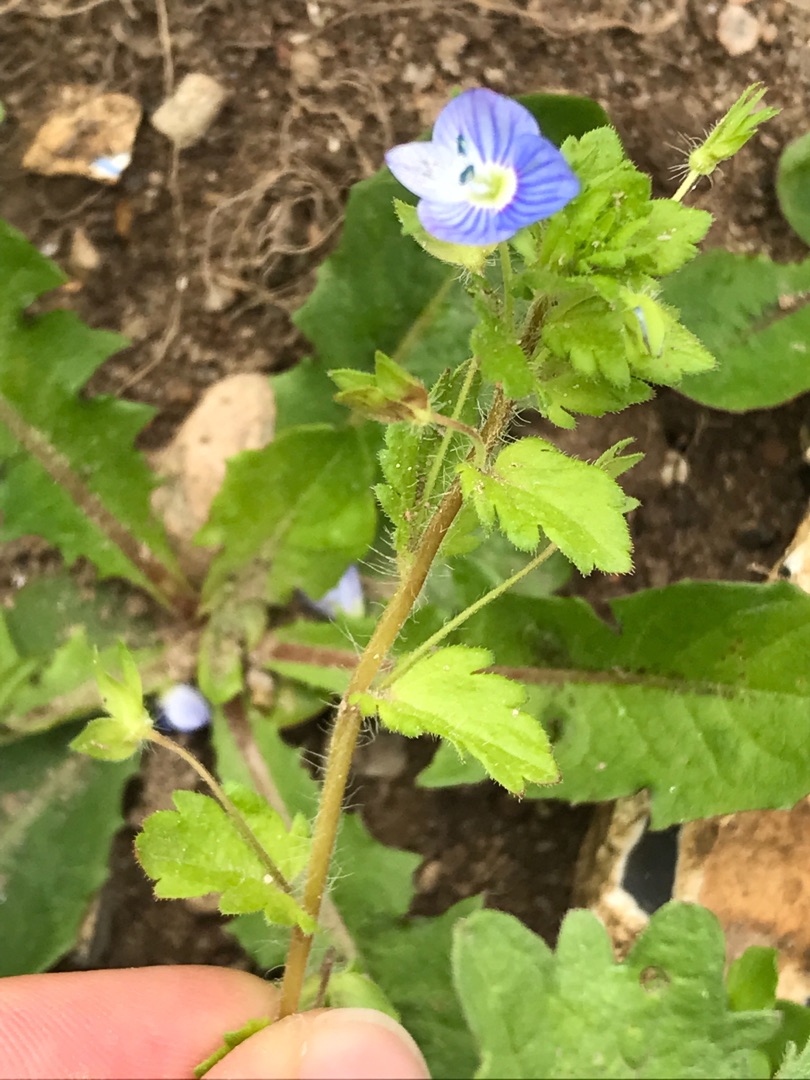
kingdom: Plantae
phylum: Tracheophyta
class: Magnoliopsida
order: Lamiales
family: Plantaginaceae
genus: Veronica
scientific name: Veronica persica
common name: Storkronet ærenpris
